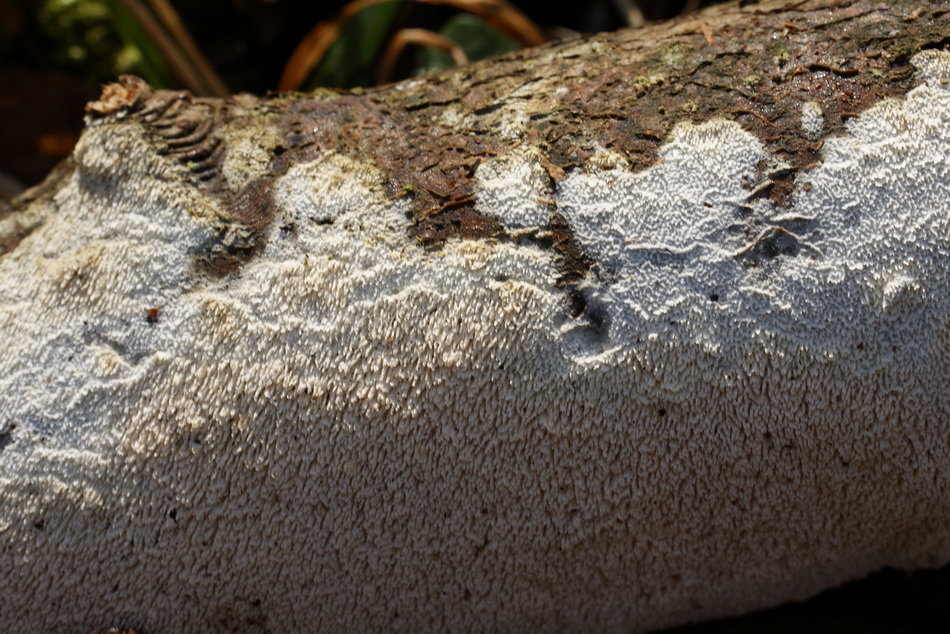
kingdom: Fungi
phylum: Basidiomycota
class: Agaricomycetes
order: Hymenochaetales
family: Schizoporaceae
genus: Schizopora
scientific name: Schizopora paradoxa
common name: hvid tandsvamp
